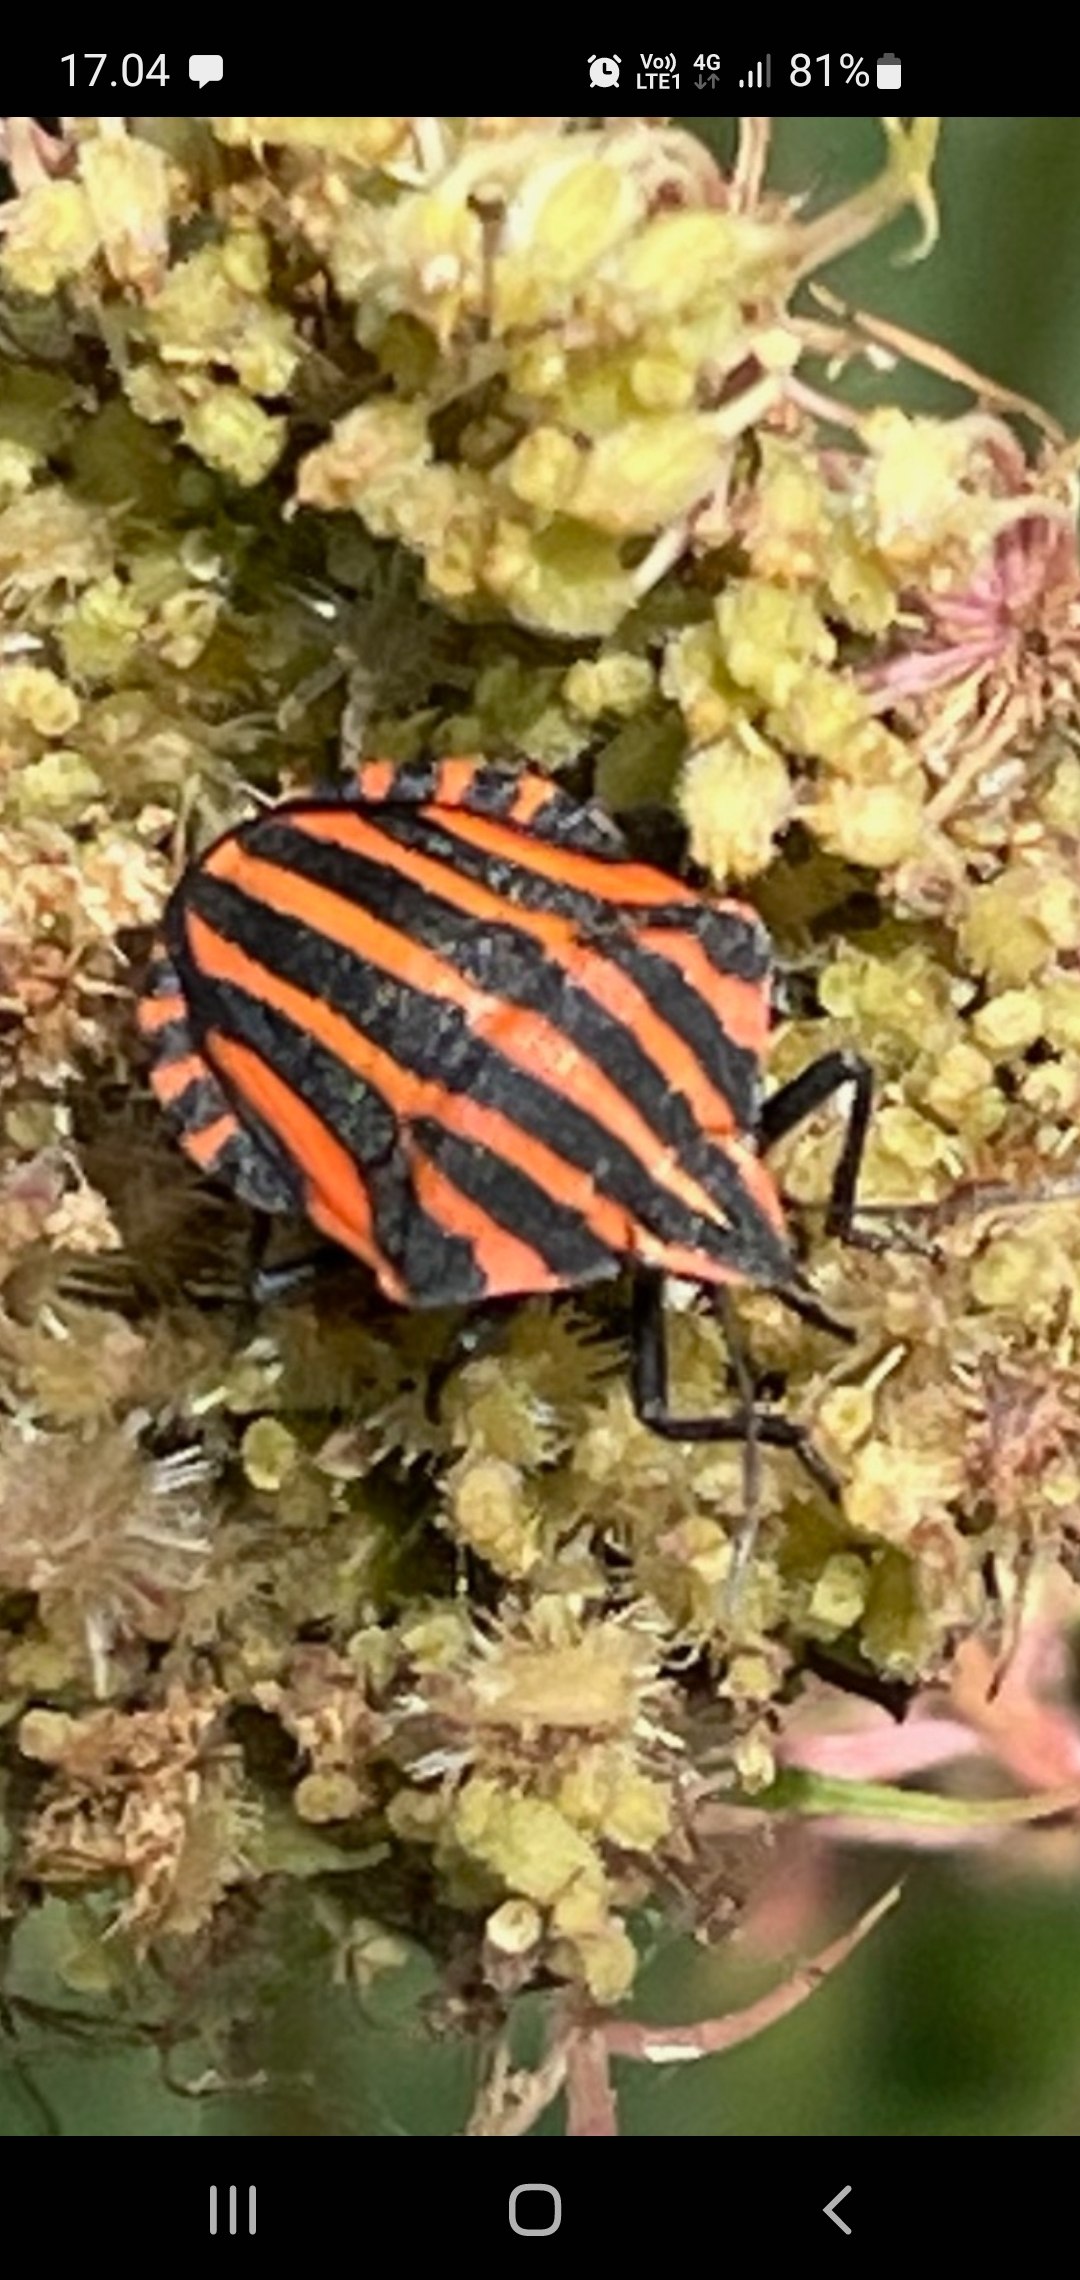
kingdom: Animalia
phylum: Arthropoda
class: Insecta
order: Hemiptera
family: Pentatomidae
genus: Graphosoma
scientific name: Graphosoma italicum
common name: Stribetæge
